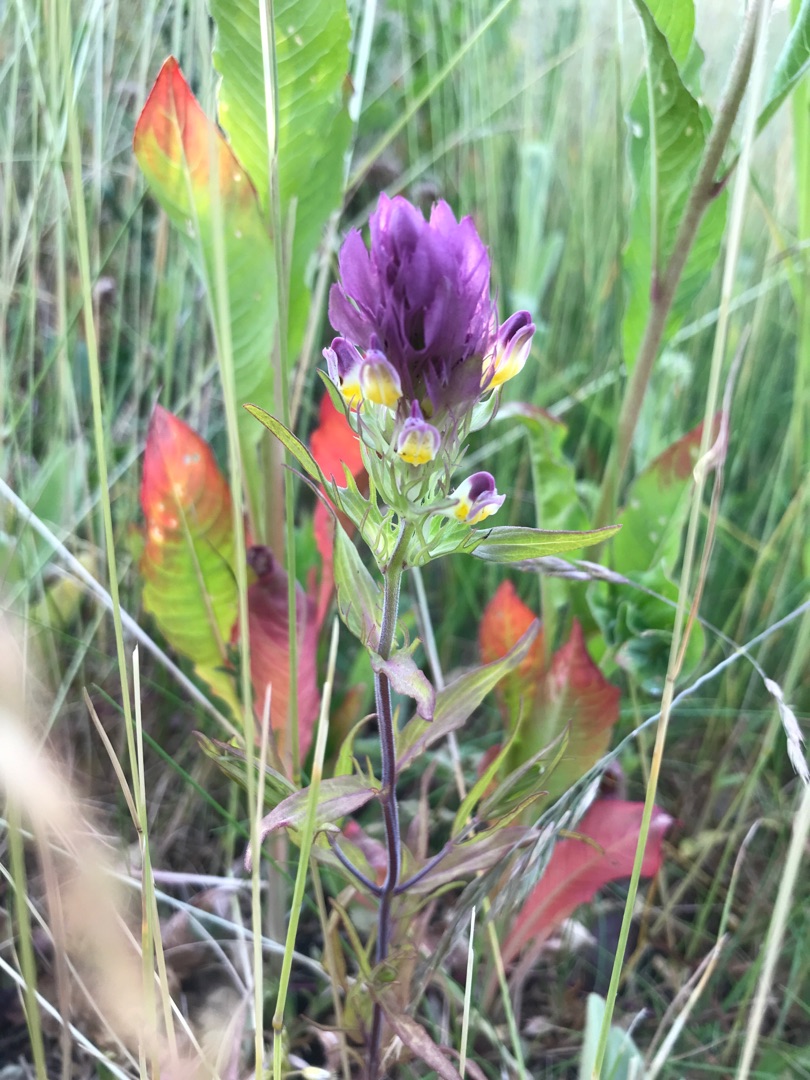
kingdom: Plantae
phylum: Tracheophyta
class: Magnoliopsida
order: Lamiales
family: Orobanchaceae
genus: Melampyrum
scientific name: Melampyrum arvense
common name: Ager-kohvede
